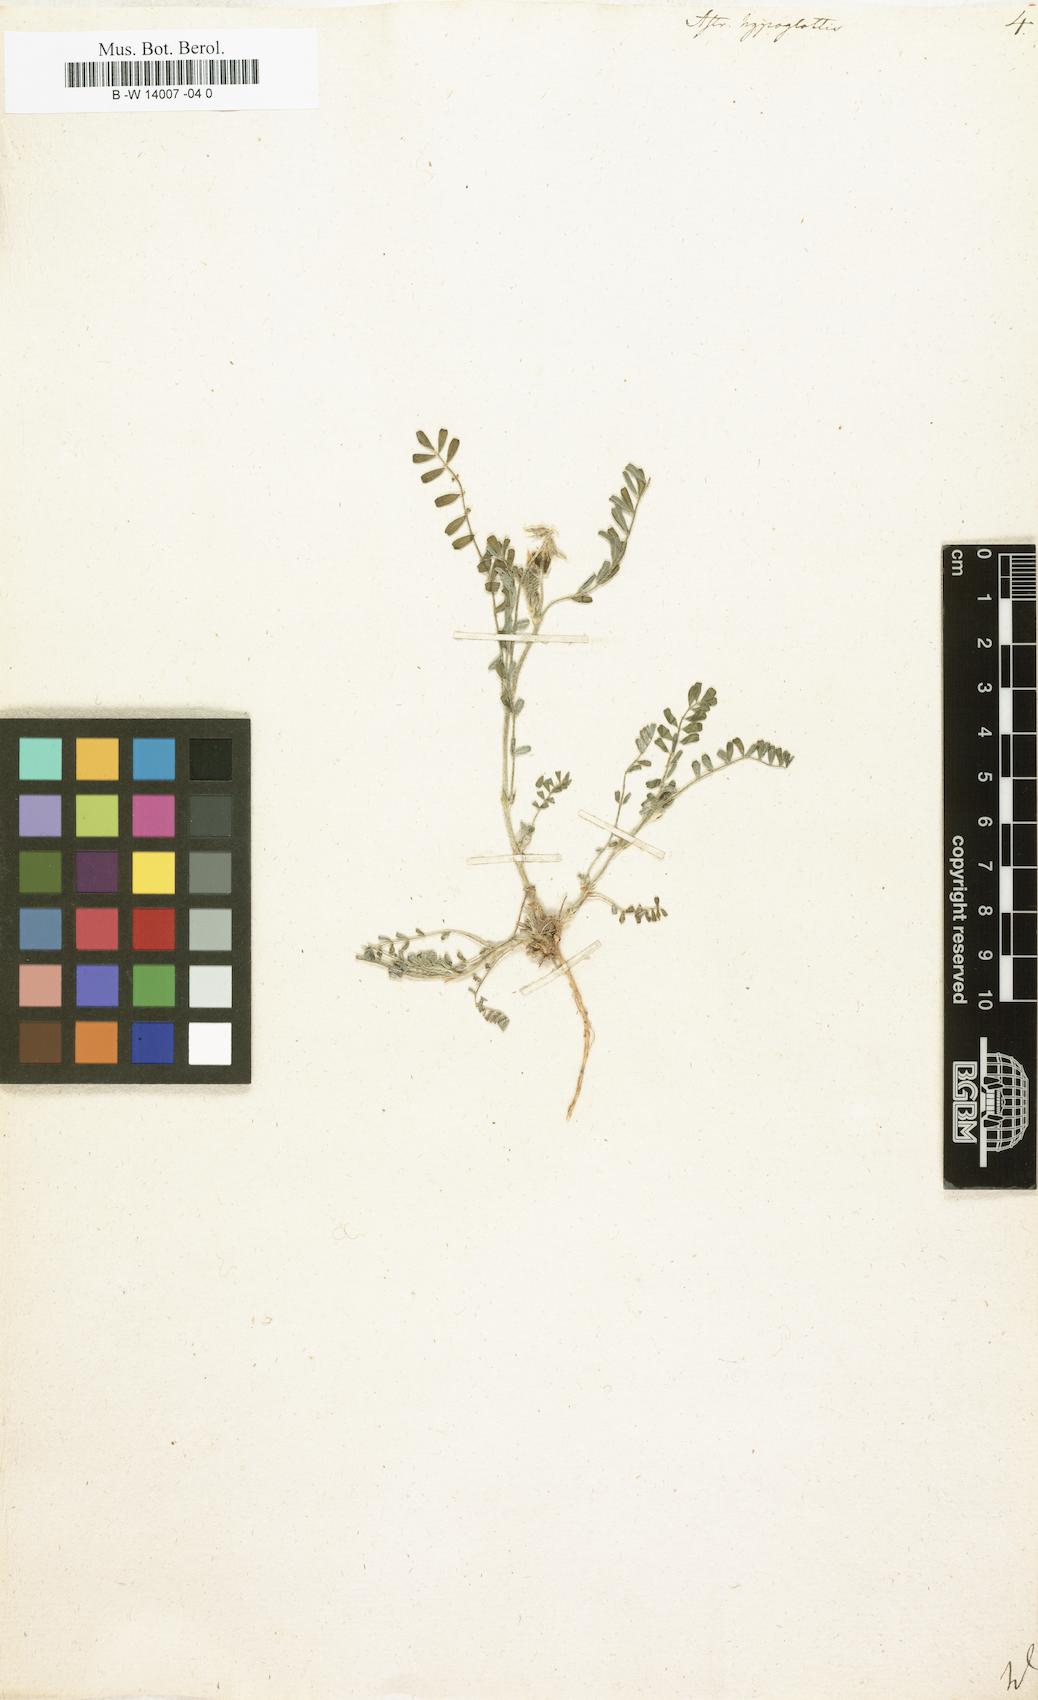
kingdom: Plantae
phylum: Tracheophyta
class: Magnoliopsida
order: Fabales
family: Fabaceae
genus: Astragalus
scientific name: Astragalus hypoglottis
